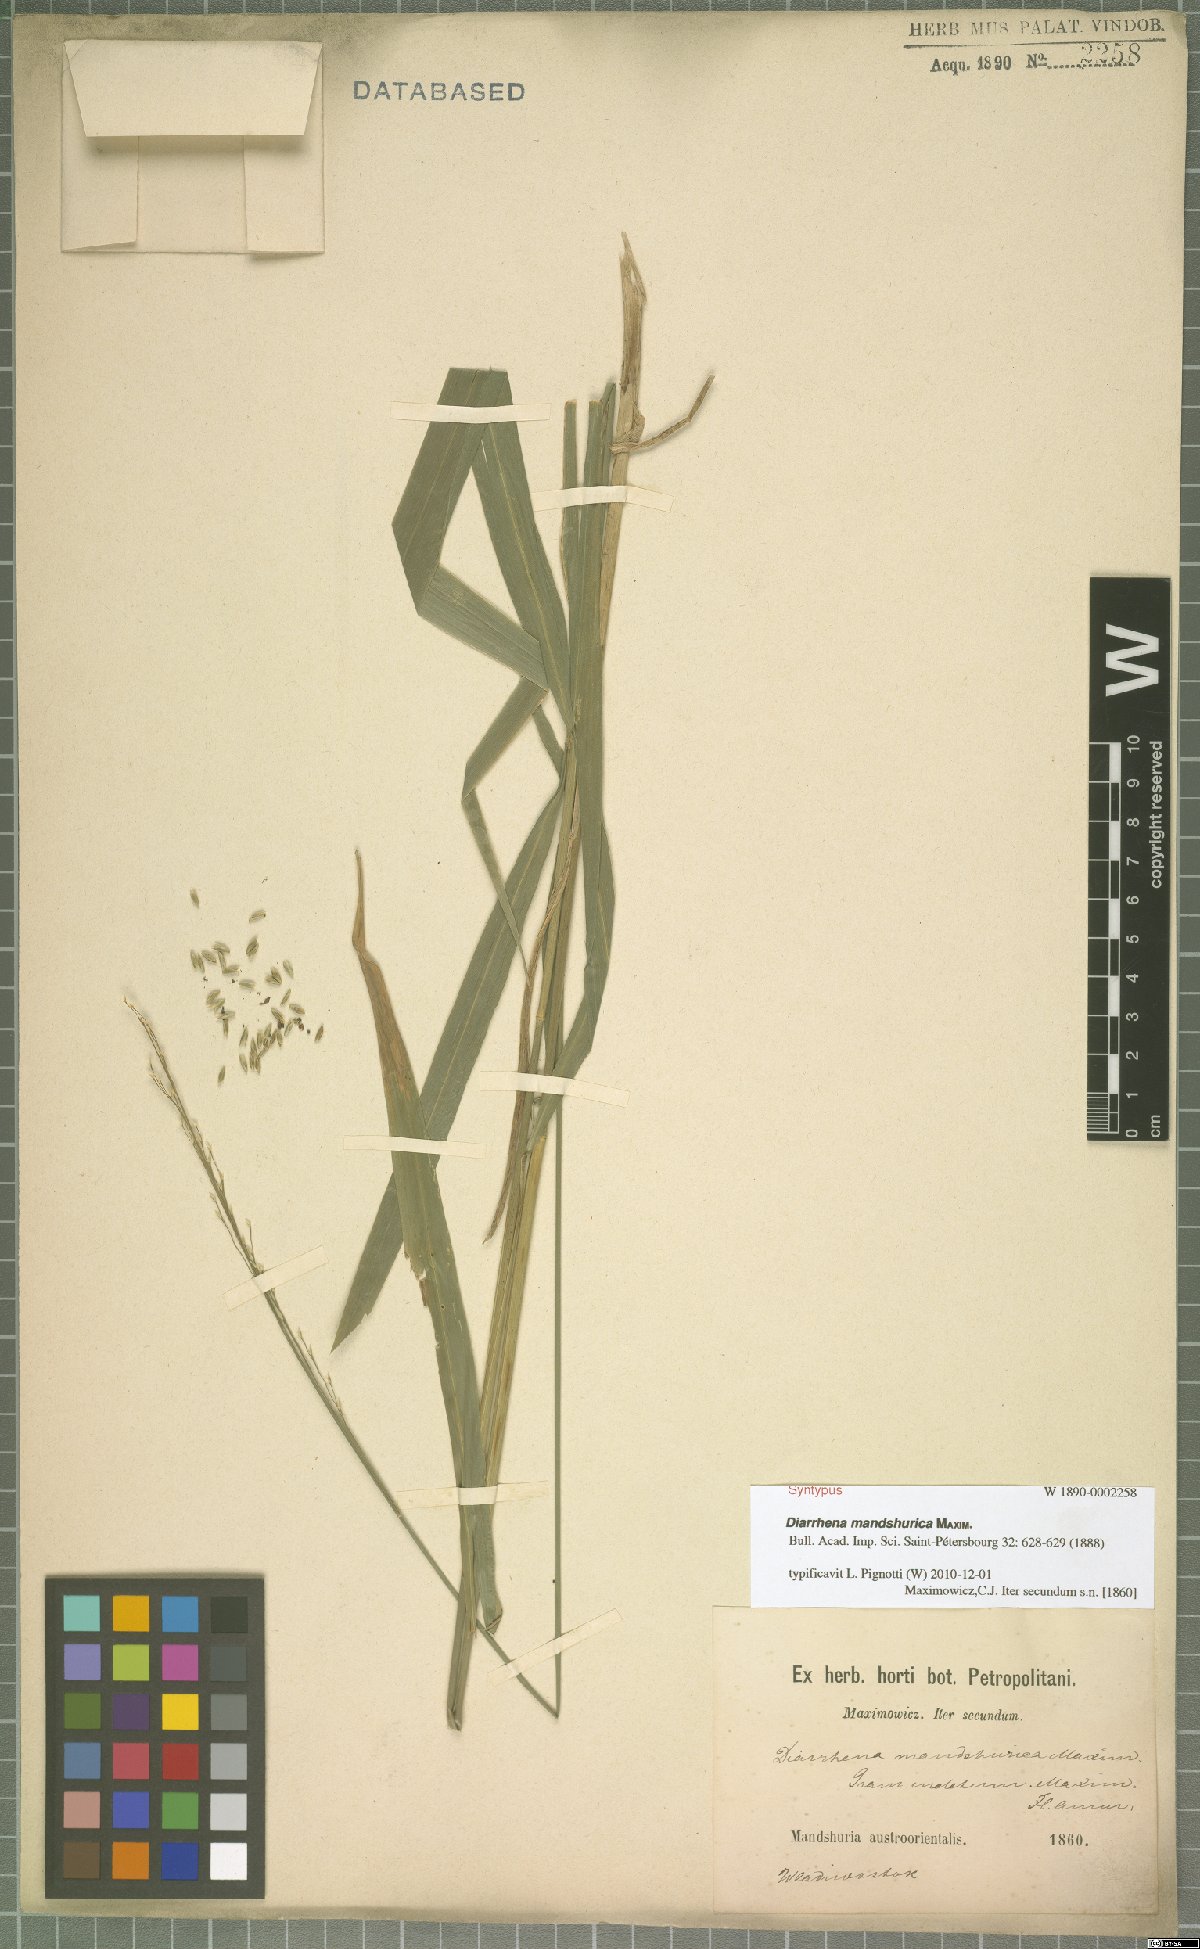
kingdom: Plantae
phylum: Tracheophyta
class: Liliopsida
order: Poales
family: Poaceae
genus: Diarrhena
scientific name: Diarrhena mandshurica
